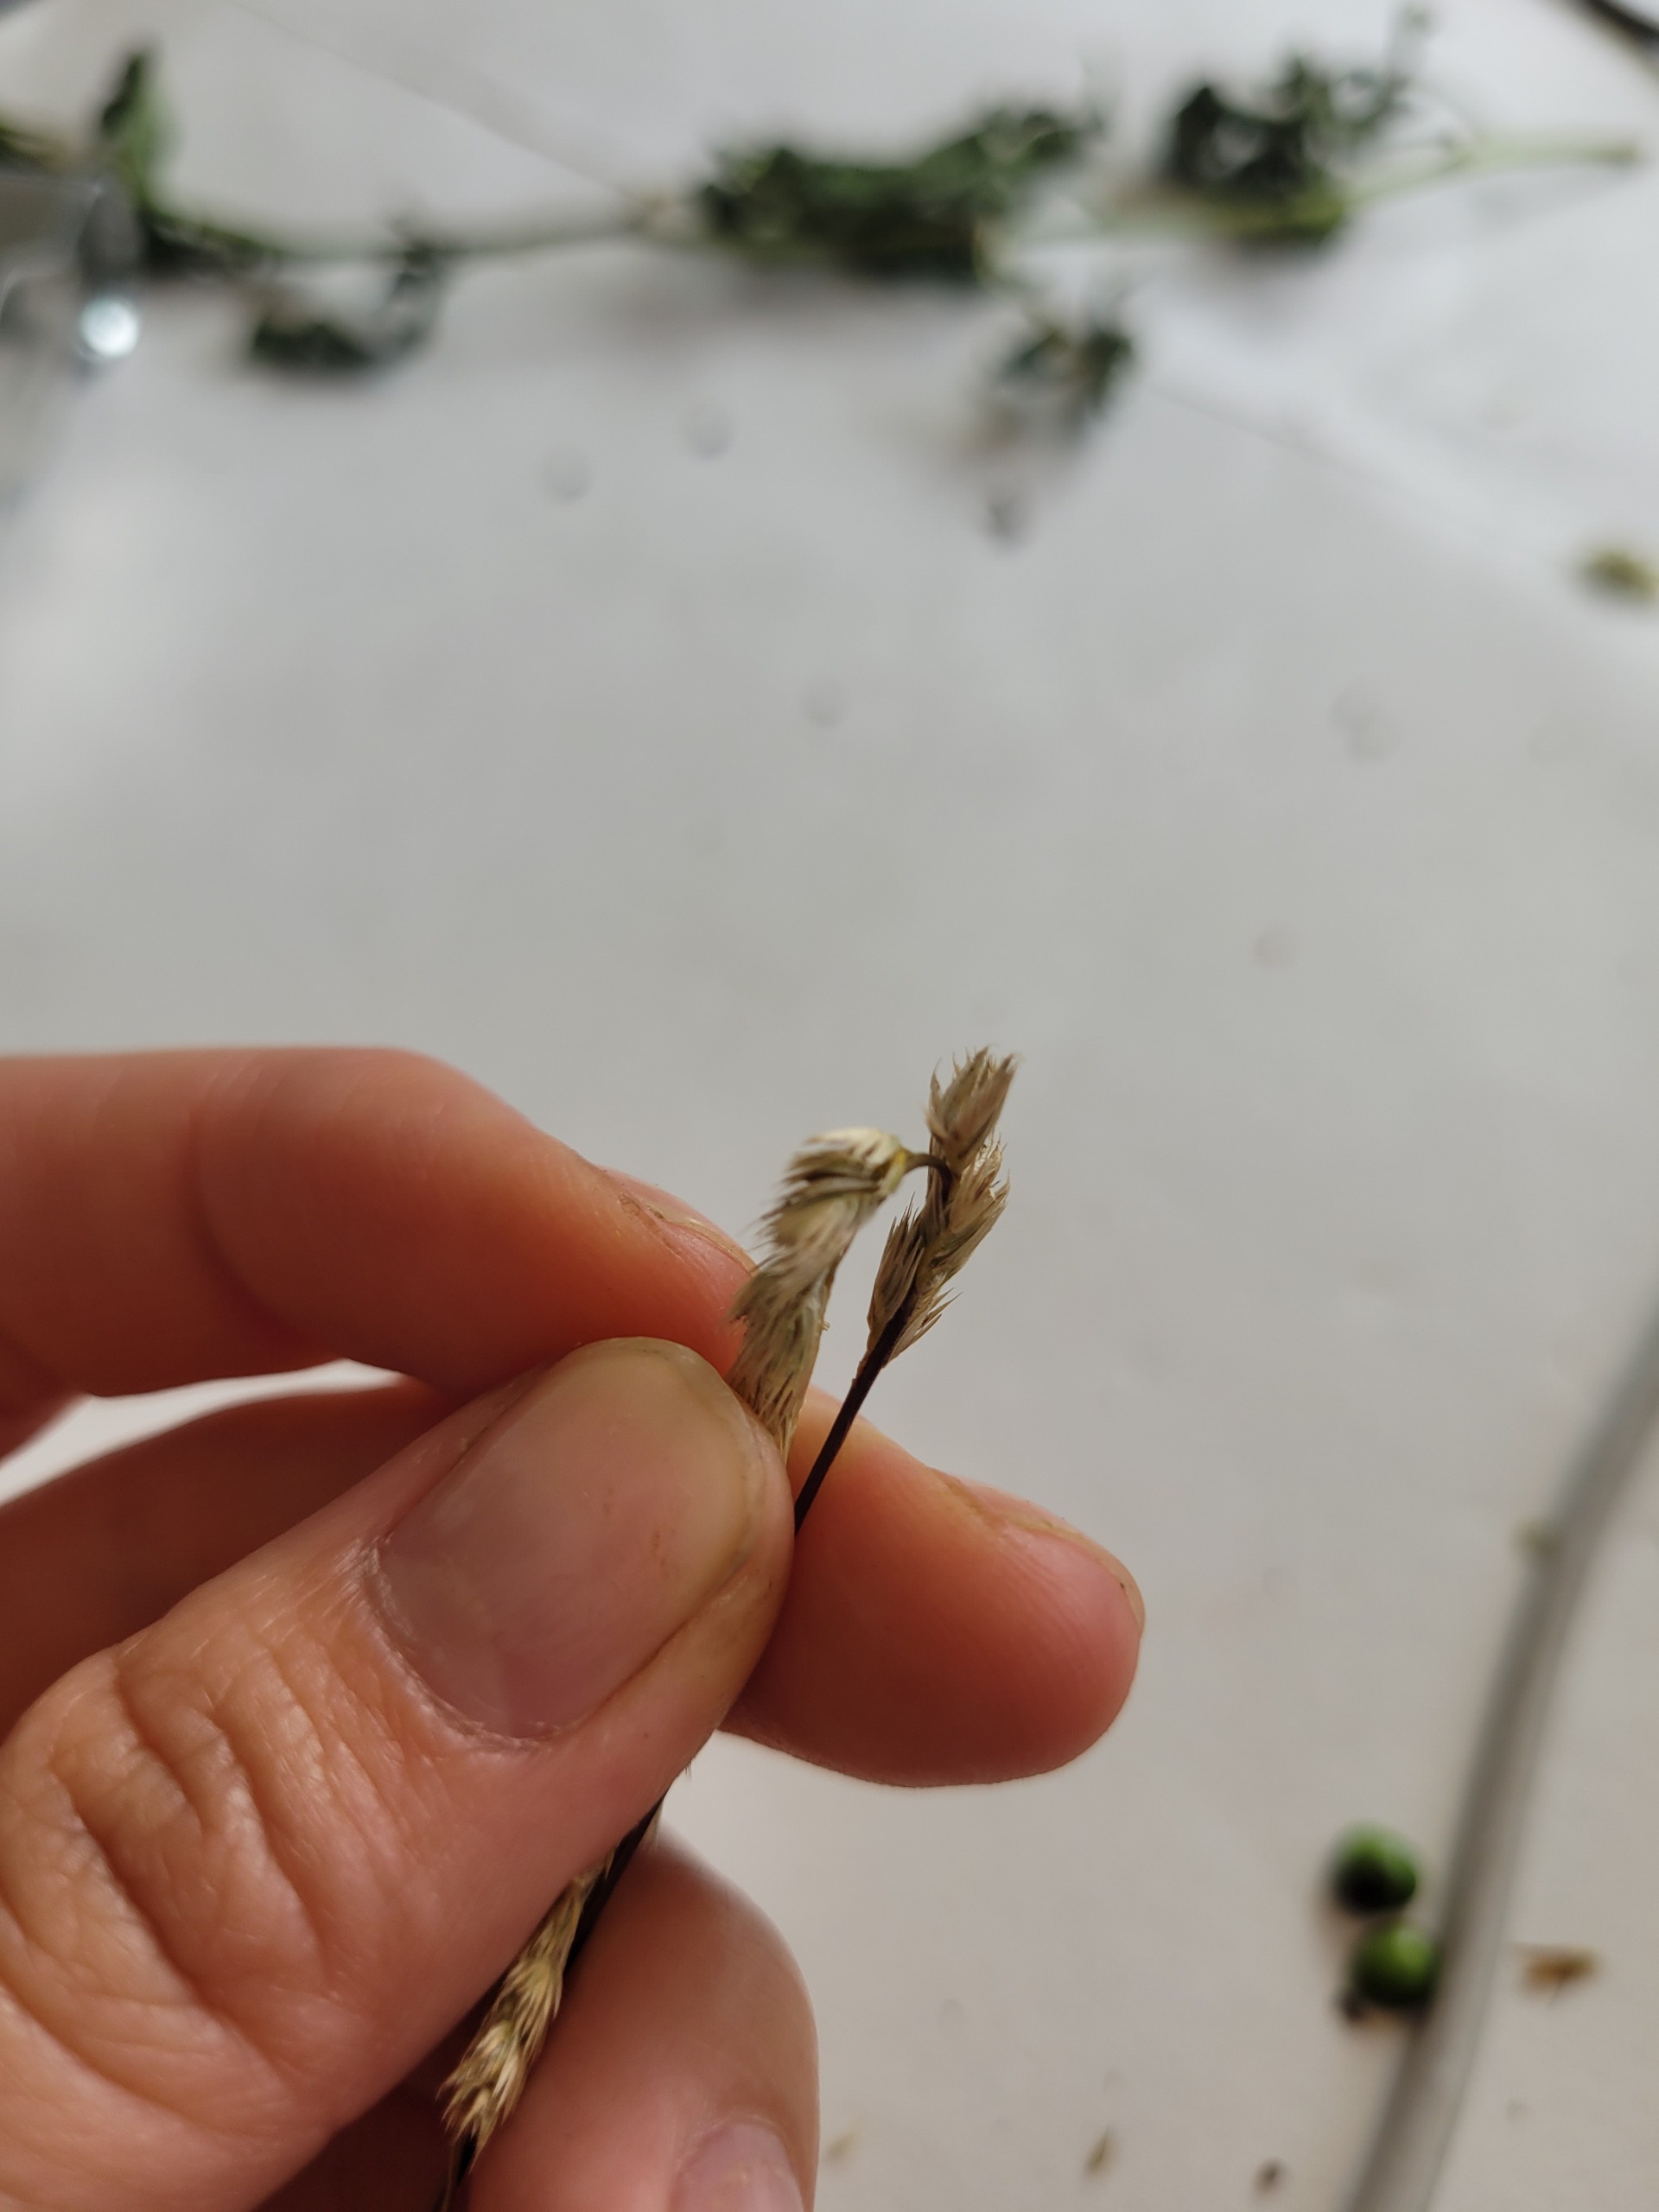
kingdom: Plantae
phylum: Tracheophyta
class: Liliopsida
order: Poales
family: Poaceae
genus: Cynosurus
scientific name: Cynosurus cristatus
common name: Kamgræs
